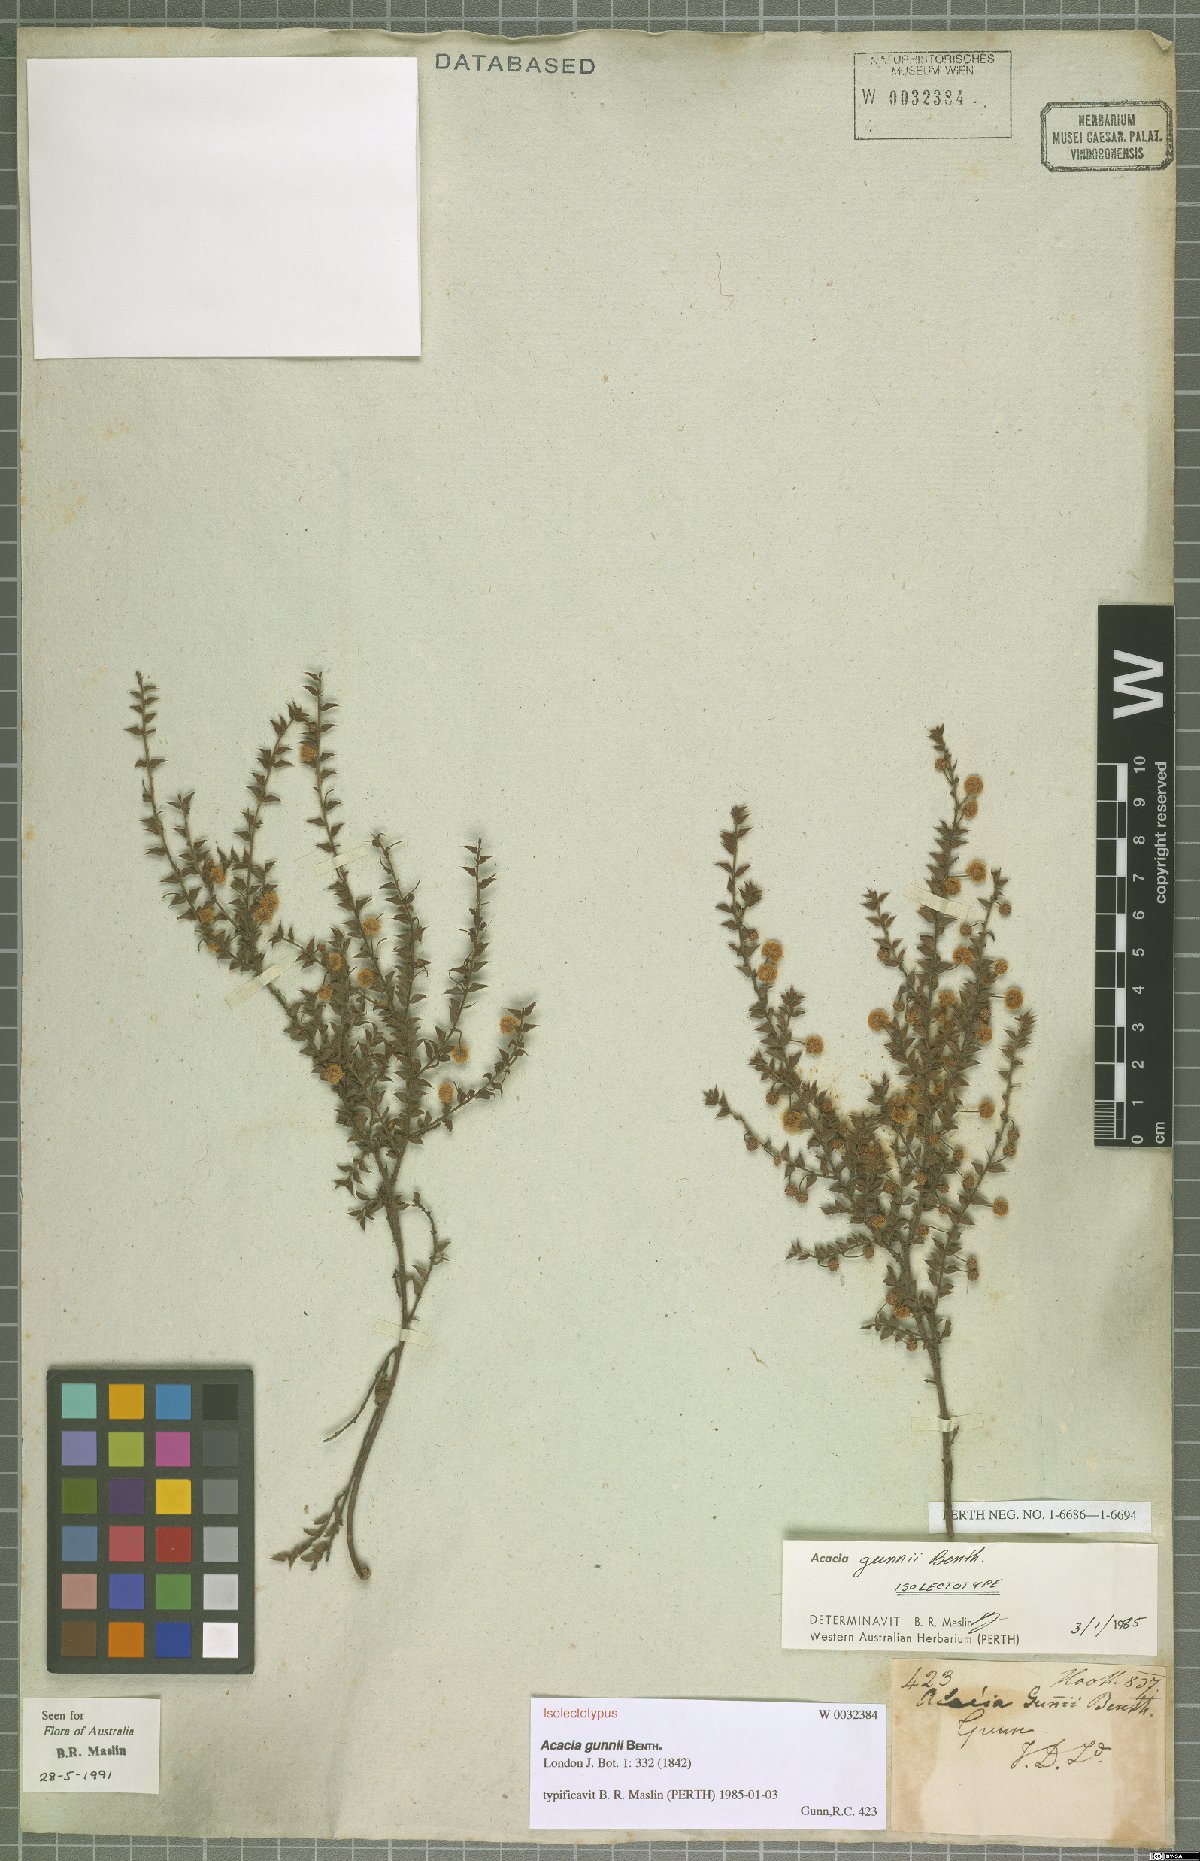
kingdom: Plantae
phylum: Tracheophyta
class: Magnoliopsida
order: Fabales
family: Fabaceae
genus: Acacia
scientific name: Acacia gunnii
